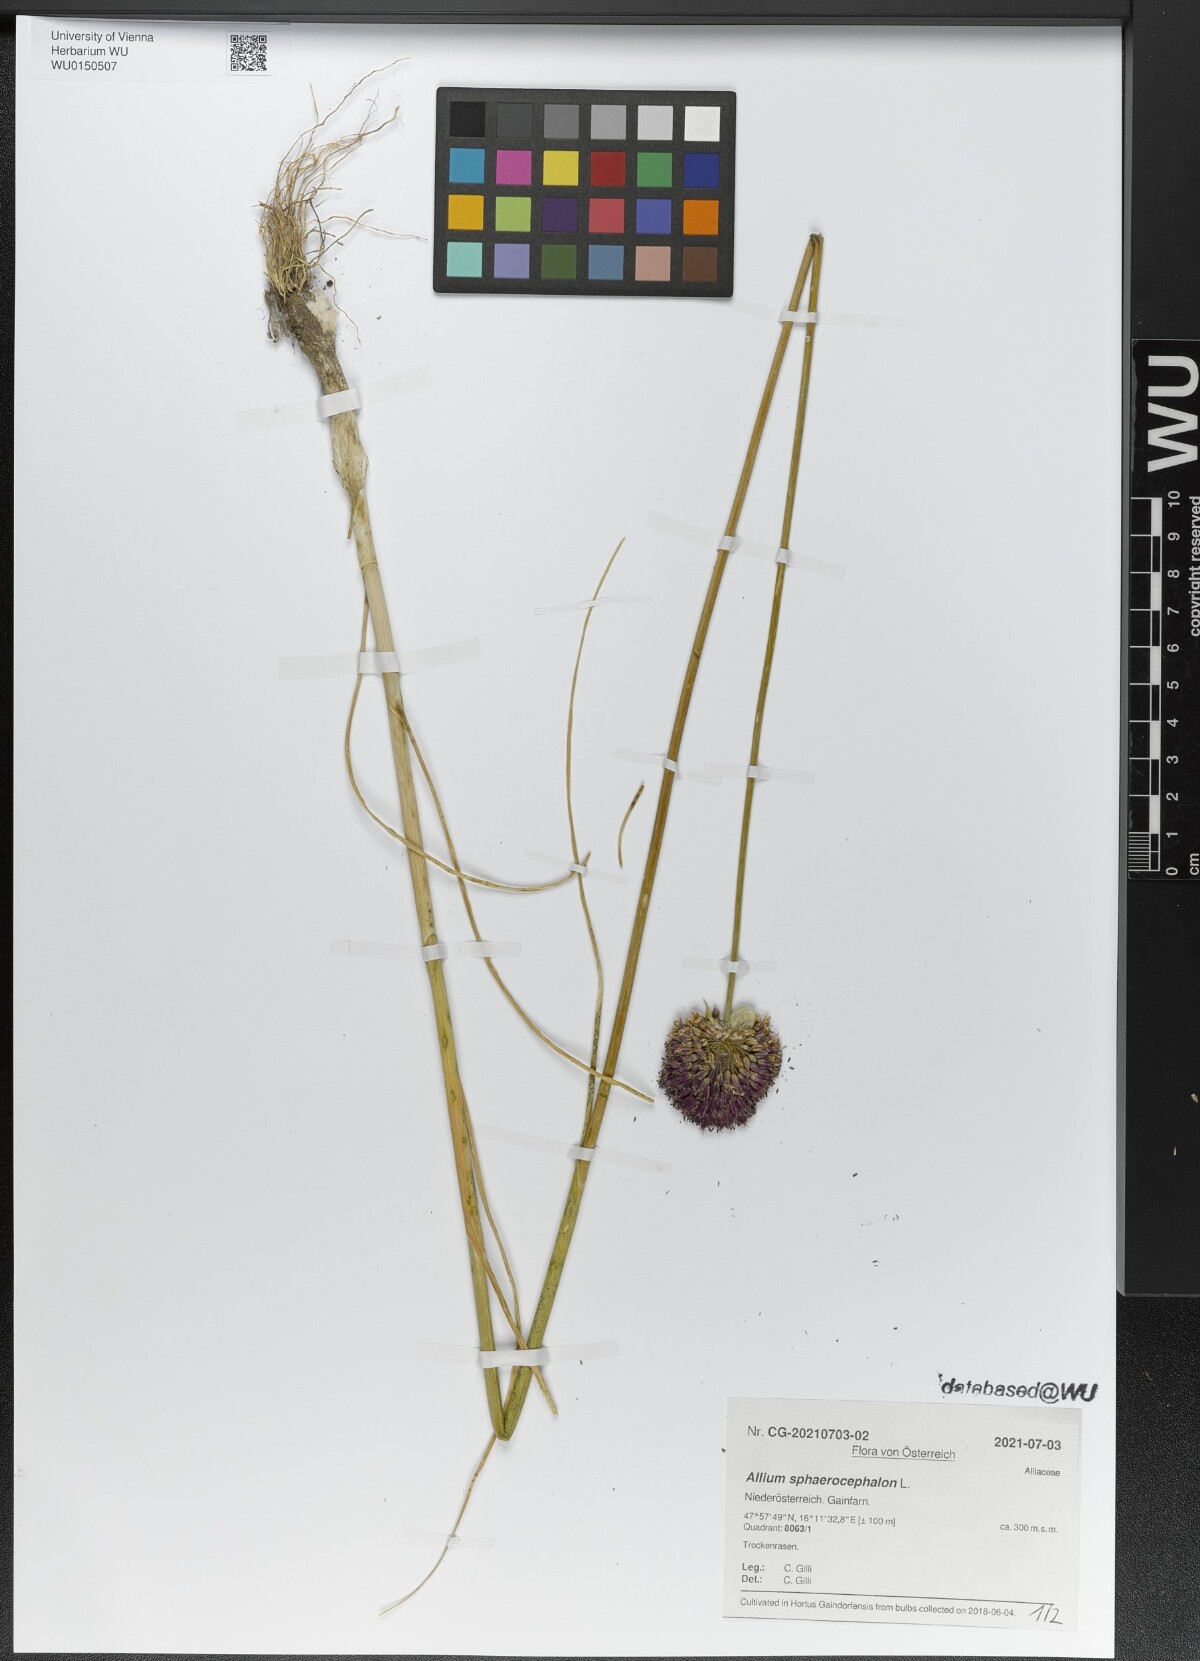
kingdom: Plantae
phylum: Tracheophyta
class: Liliopsida
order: Asparagales
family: Amaryllidaceae
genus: Allium
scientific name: Allium sphaerocephalon
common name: Round-headed leek
